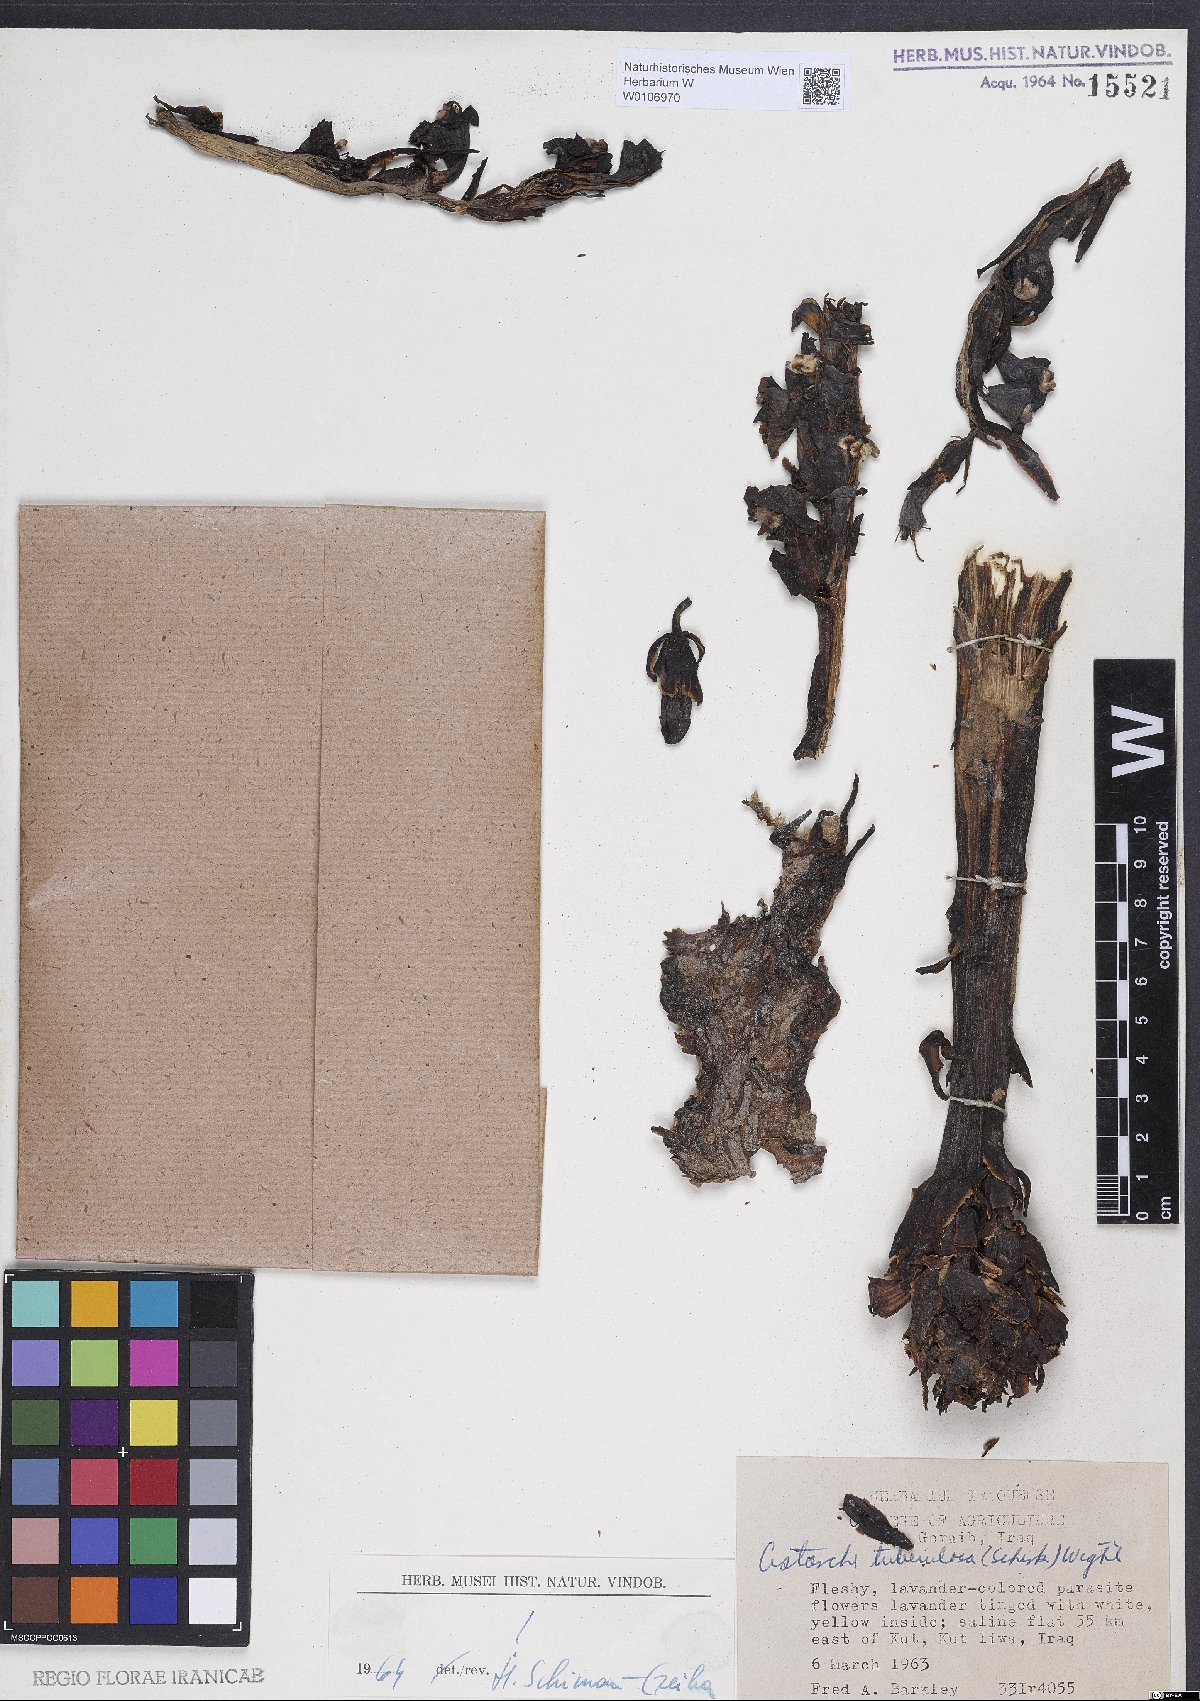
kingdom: Plantae
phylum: Tracheophyta
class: Magnoliopsida
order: Lamiales
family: Orobanchaceae
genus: Cistanche
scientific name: Cistanche tubulosa
